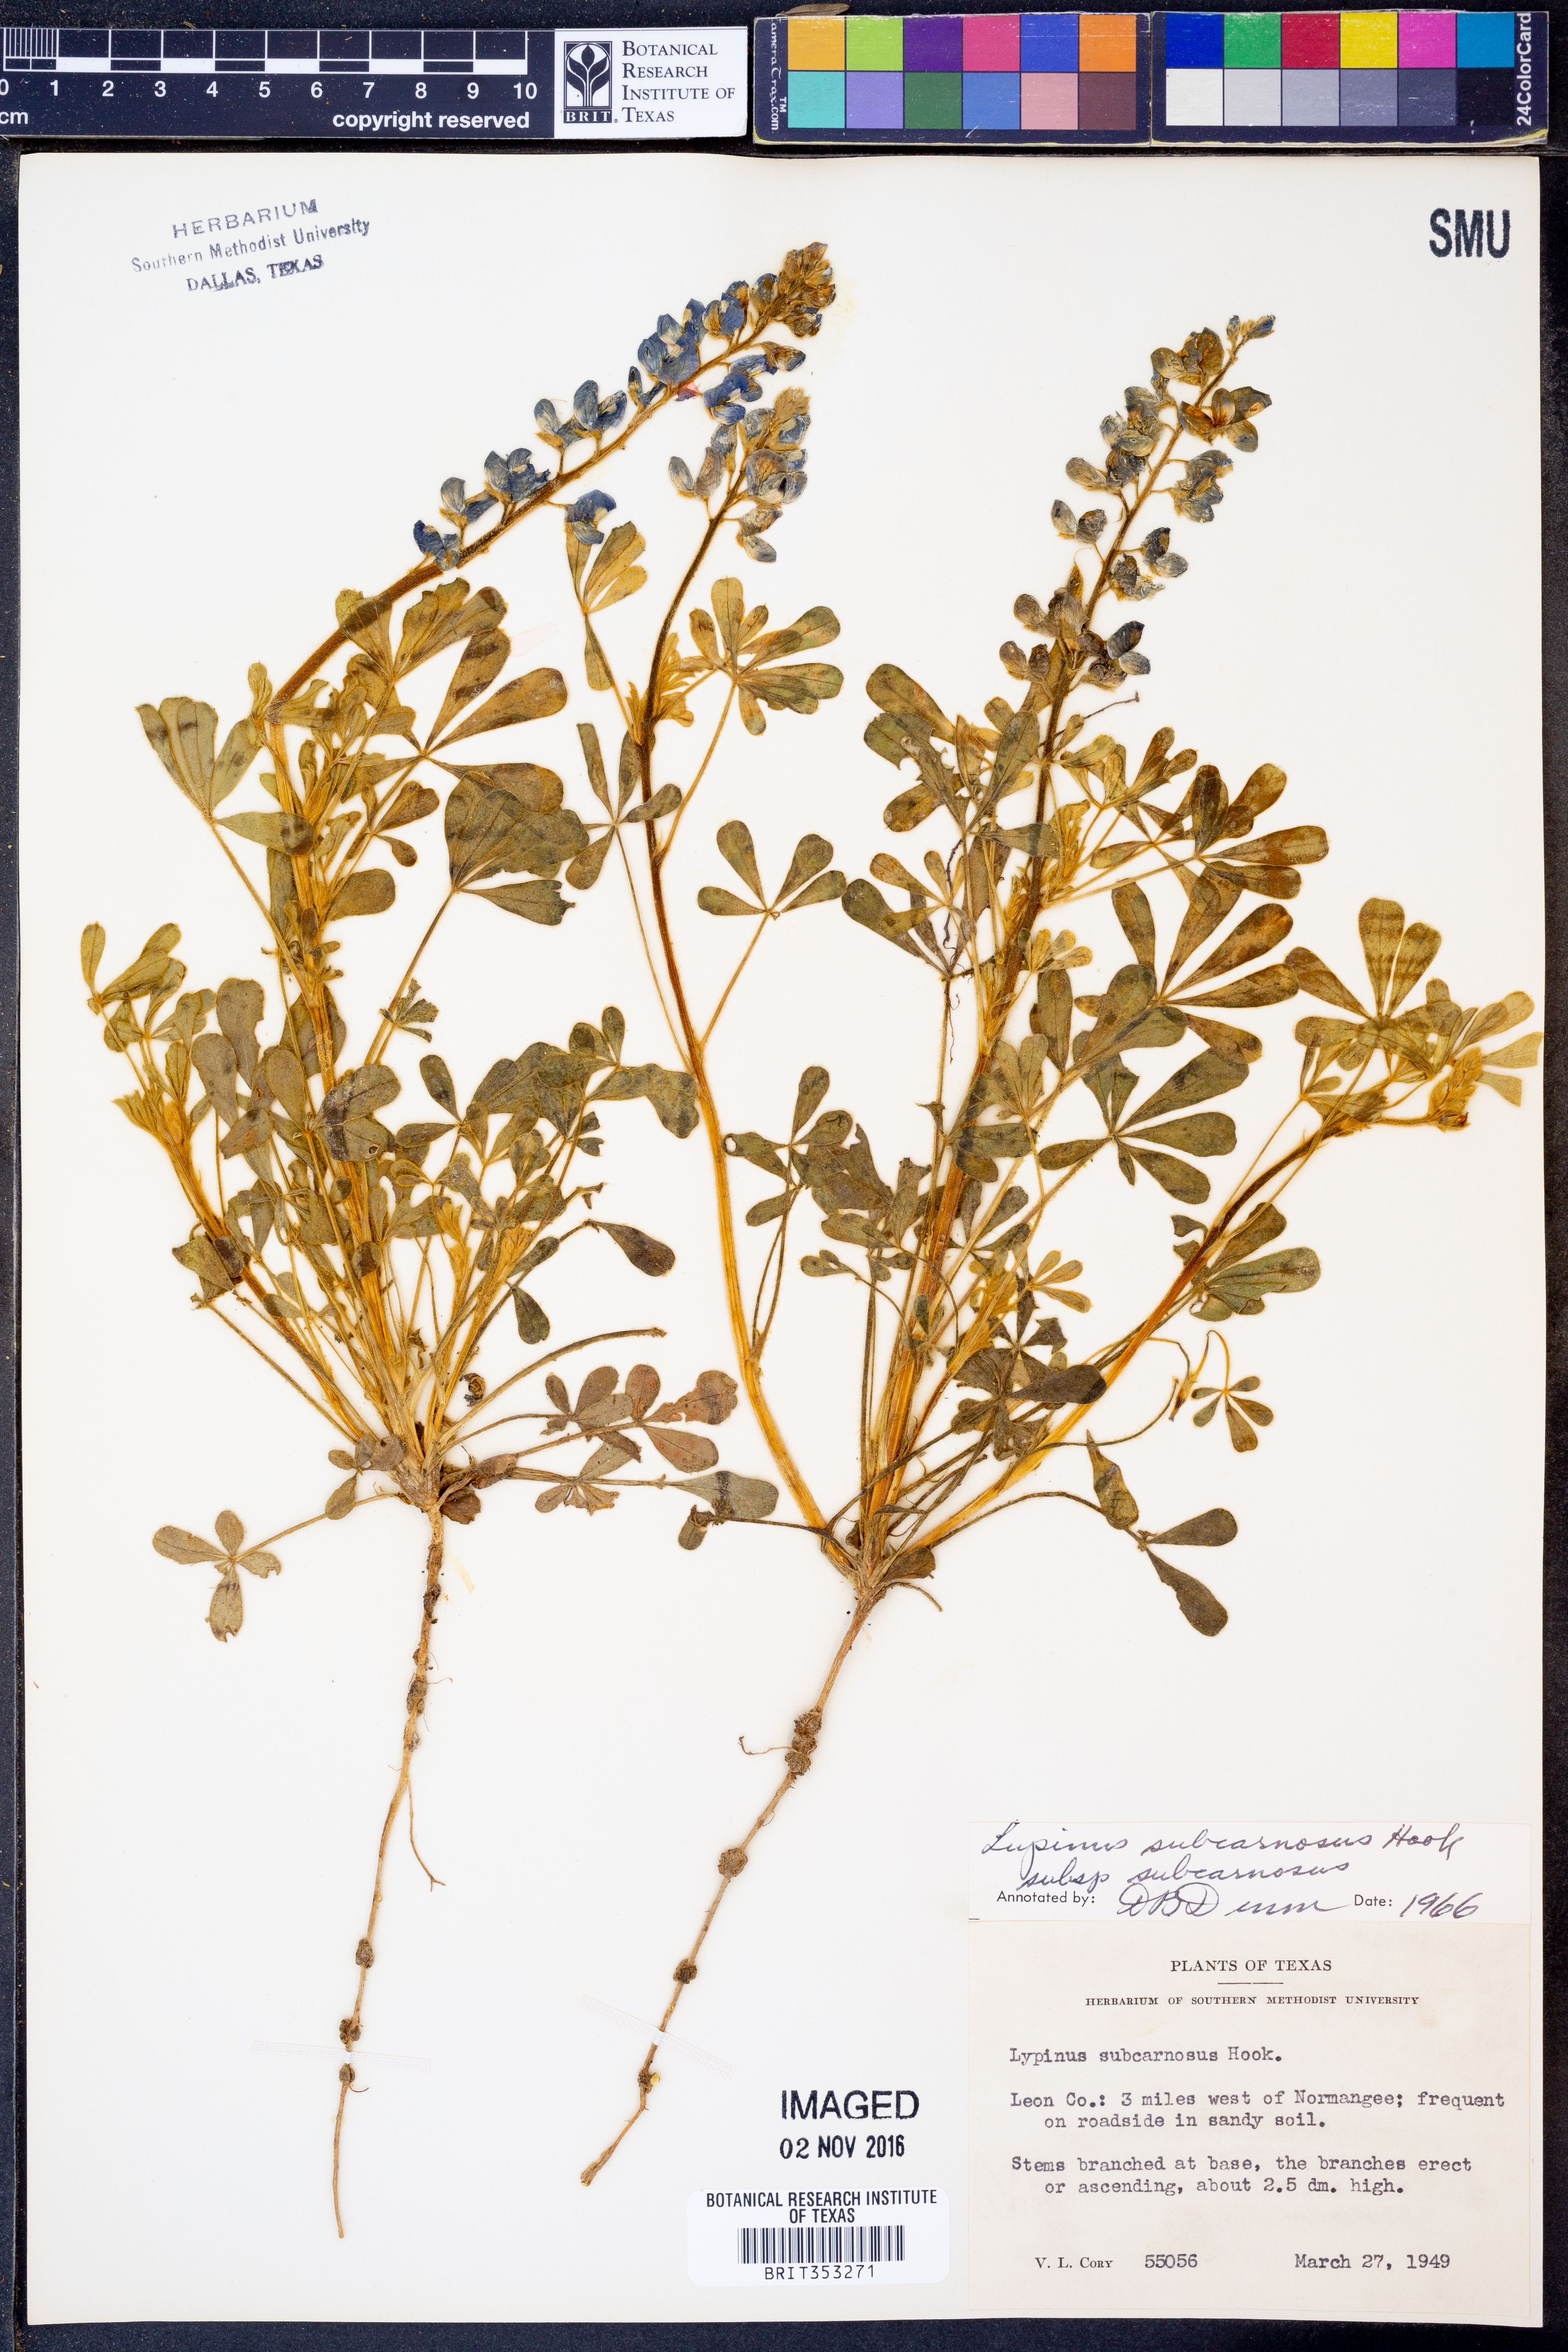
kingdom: Plantae
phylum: Tracheophyta
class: Magnoliopsida
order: Fabales
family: Fabaceae
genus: Lupinus
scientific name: Lupinus subcarnosus
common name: Texas bluebonnet
